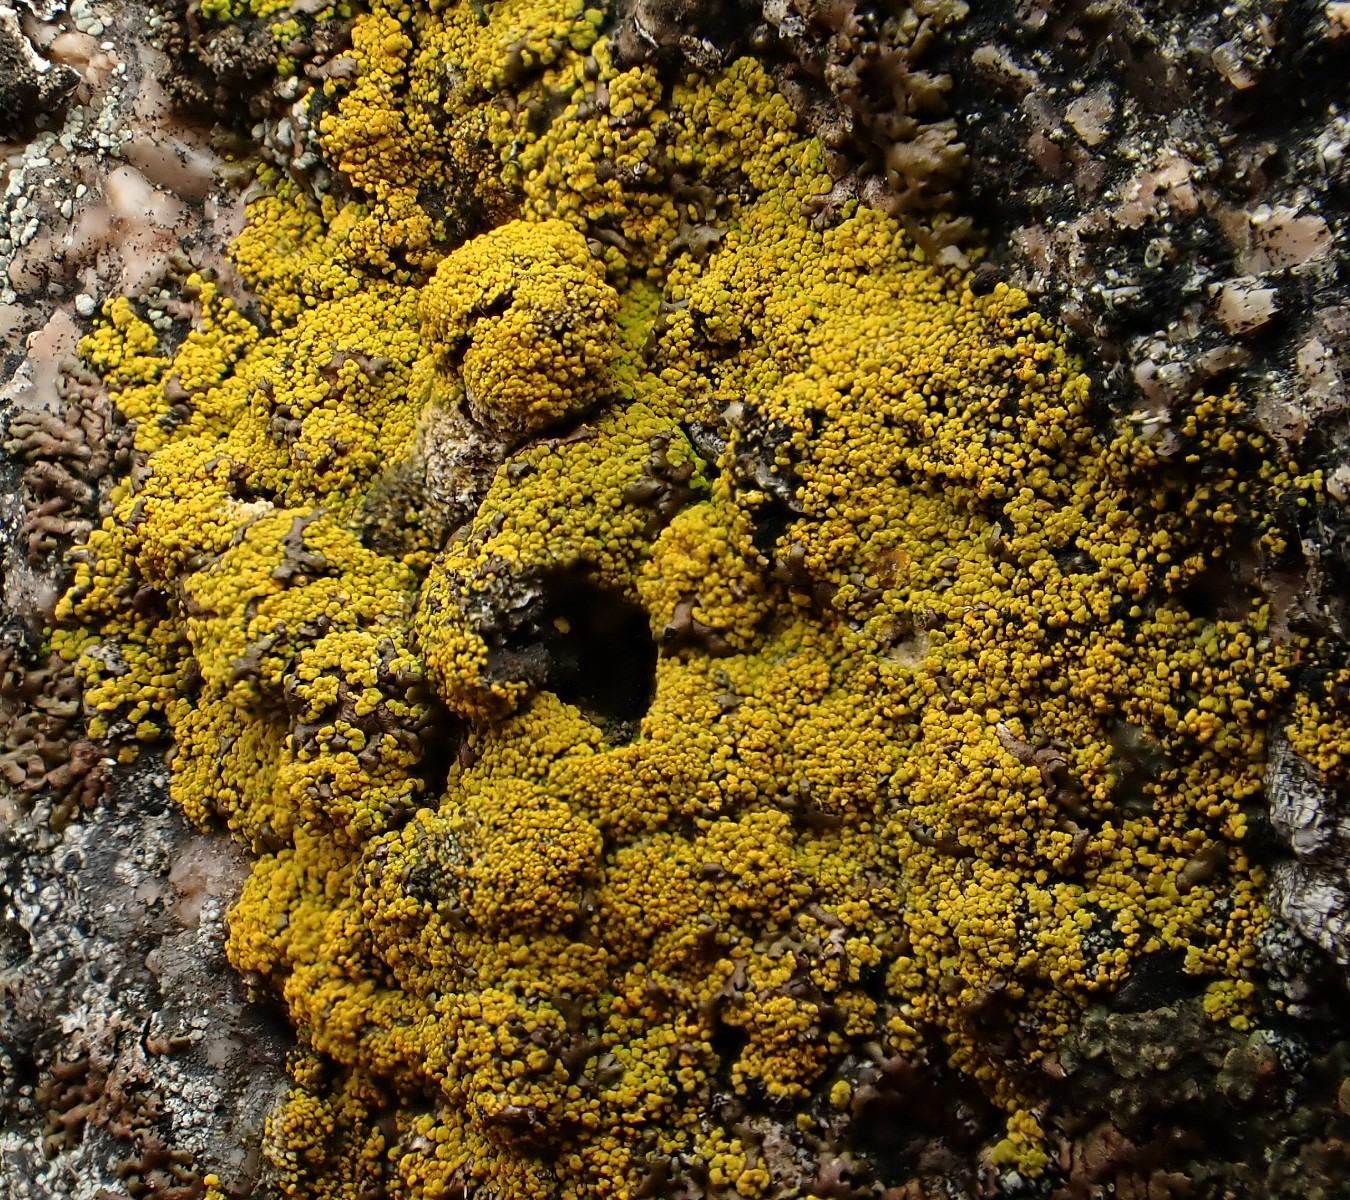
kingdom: Fungi
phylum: Ascomycota
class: Candelariomycetes
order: Candelariales
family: Candelariaceae
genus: Candelariella
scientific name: Candelariella vitellina
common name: almindelig æggeblommelav
